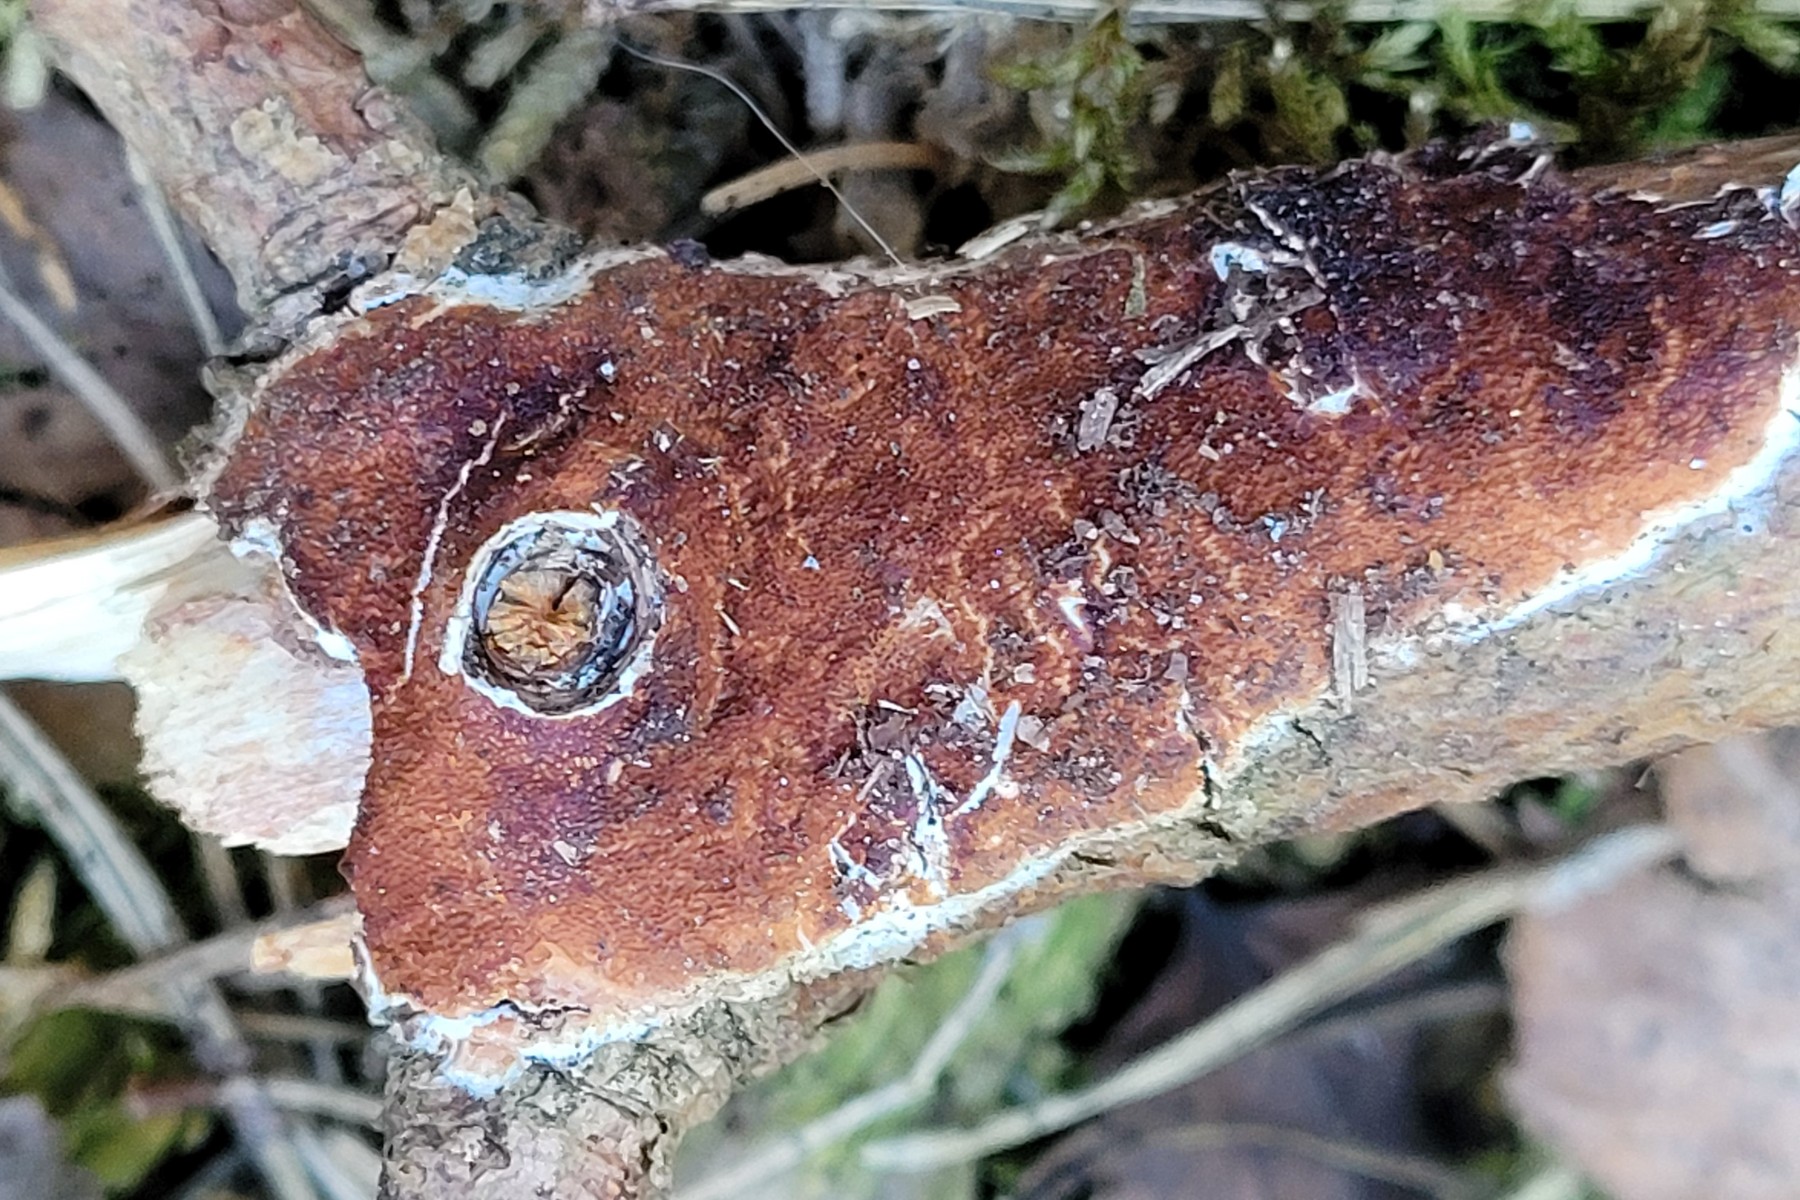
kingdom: Fungi
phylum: Basidiomycota
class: Agaricomycetes
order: Polyporales
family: Irpicaceae
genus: Meruliopsis
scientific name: Meruliopsis taxicola
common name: purpurbrun foldporesvamp
